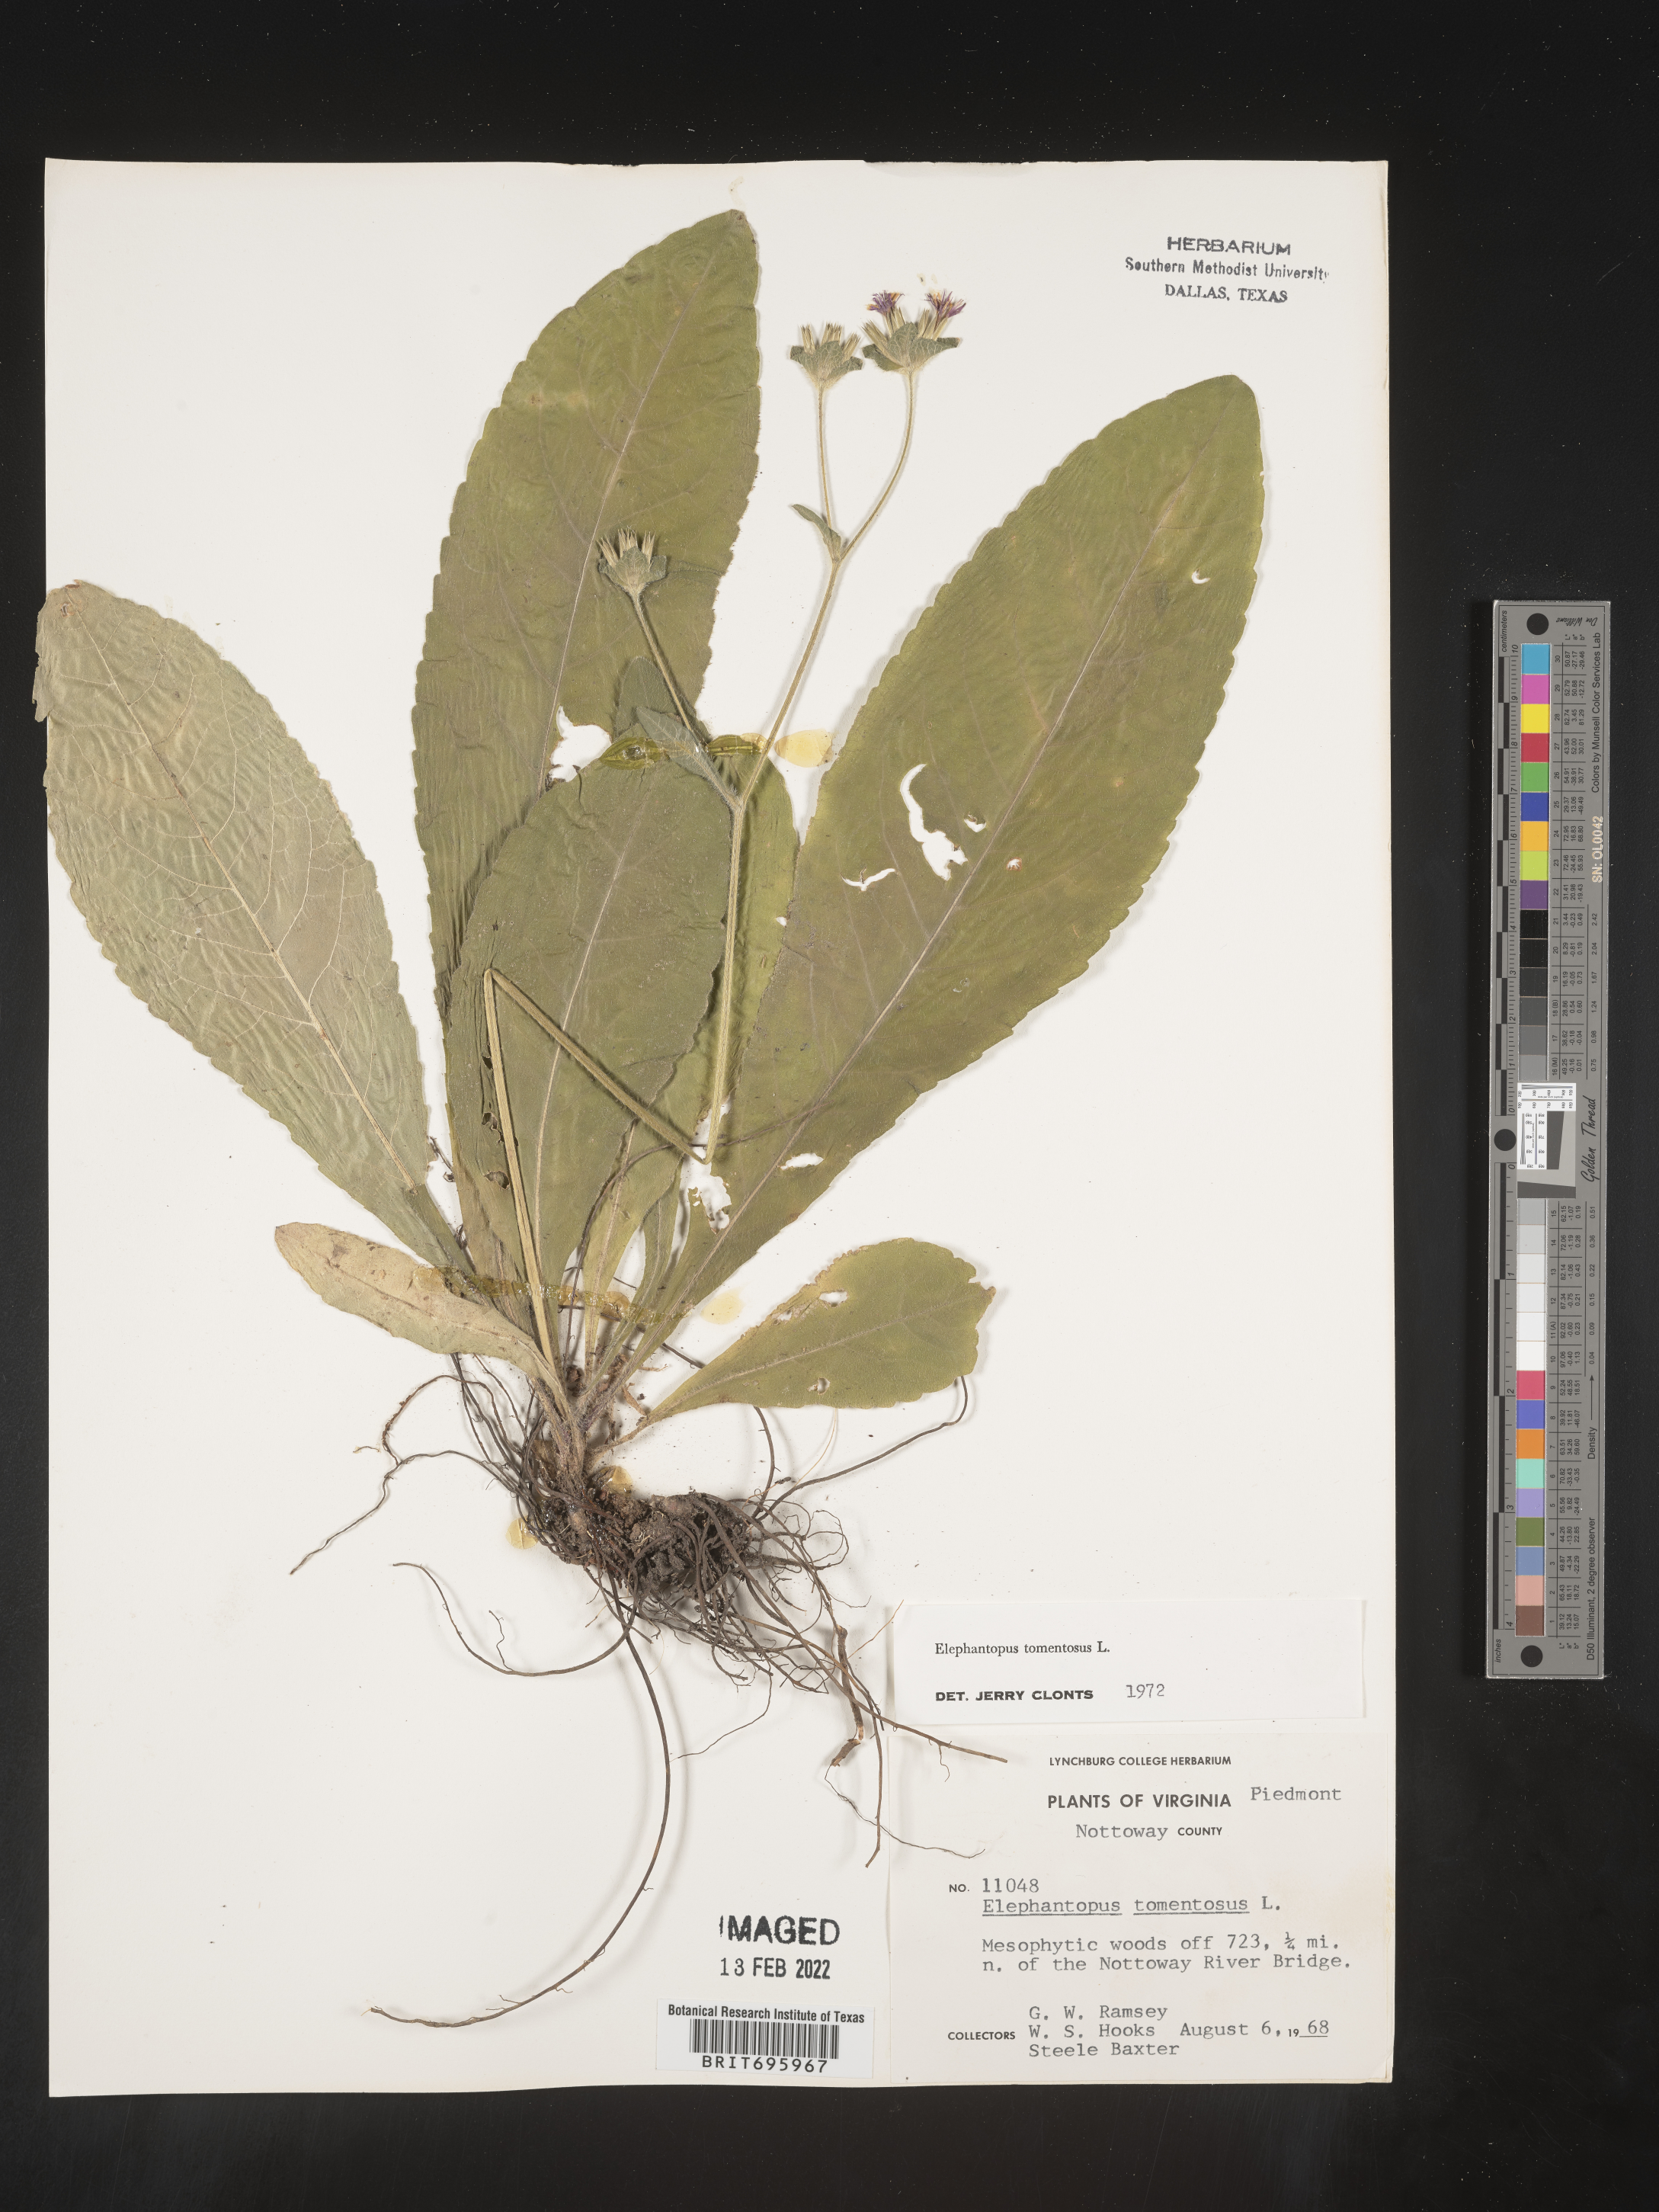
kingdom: Plantae
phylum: Tracheophyta
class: Magnoliopsida
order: Asterales
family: Asteraceae
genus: Elephantopus
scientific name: Elephantopus tomentosus
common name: Tobacco-weed
